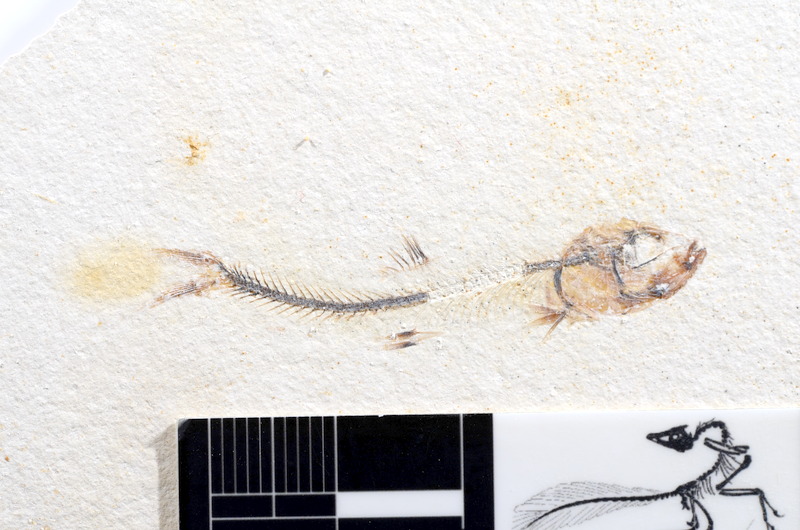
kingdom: Animalia
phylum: Chordata
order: Salmoniformes
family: Orthogonikleithridae
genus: Orthogonikleithrus
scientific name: Orthogonikleithrus hoelli
